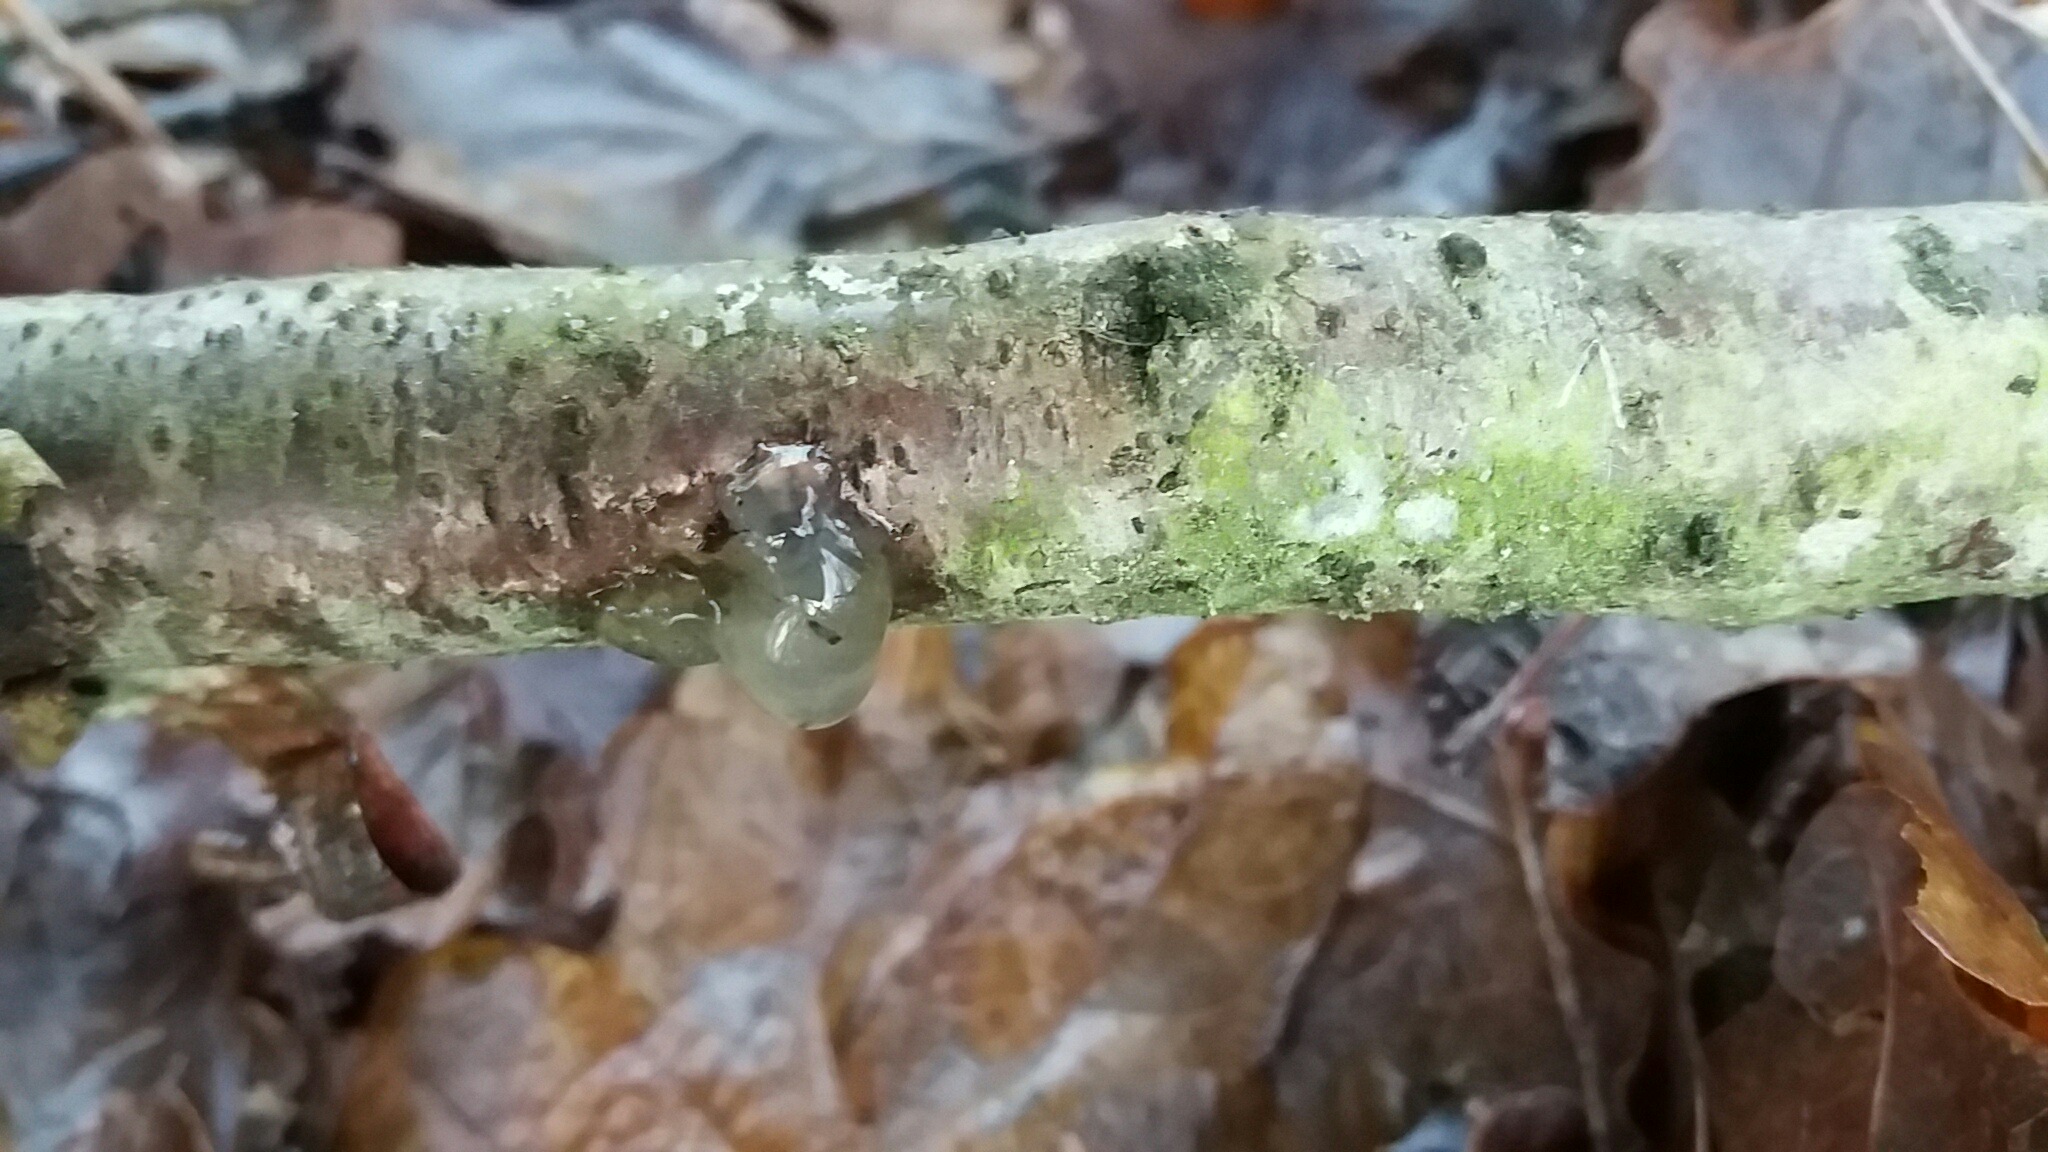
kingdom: Fungi
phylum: Basidiomycota
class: Agaricomycetes
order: Auriculariales
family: Hyaloriaceae
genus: Myxarium
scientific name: Myxarium nucleatum
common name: klar bævretop
